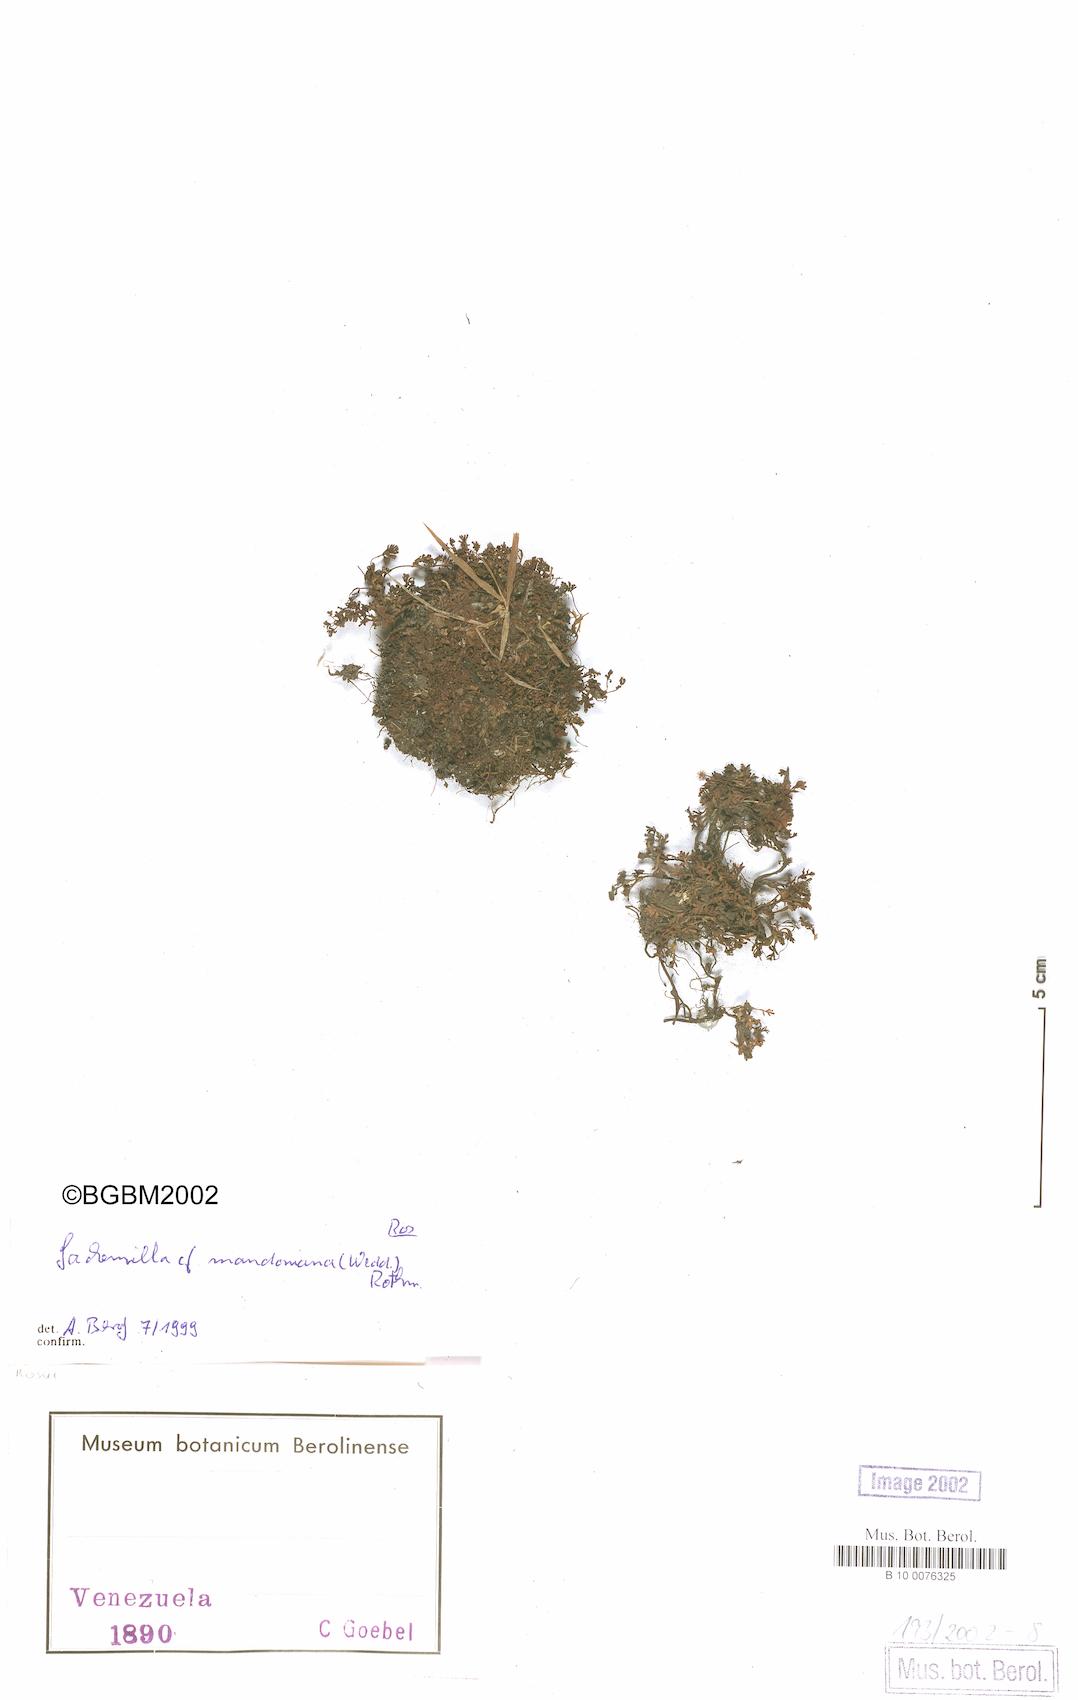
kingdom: Plantae
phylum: Tracheophyta
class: Magnoliopsida
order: Rosales
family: Rosaceae
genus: Lachemilla
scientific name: Lachemilla mandoniana
